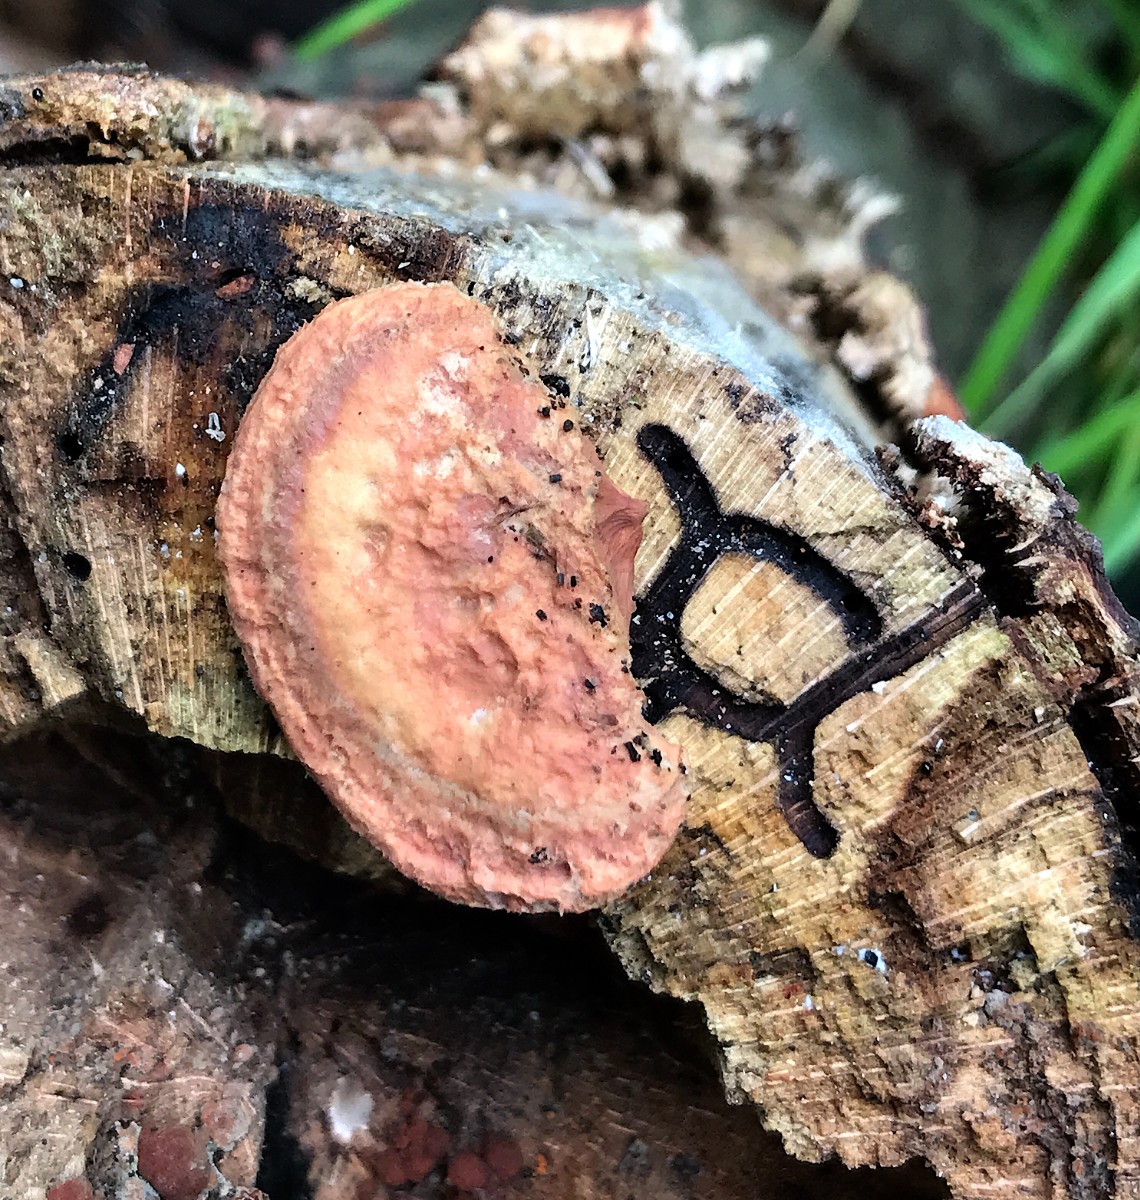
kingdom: Fungi
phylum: Basidiomycota
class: Agaricomycetes
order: Polyporales
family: Phanerochaetaceae
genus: Hapalopilus
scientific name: Hapalopilus rutilans
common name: rødlig okkerporesvamp
